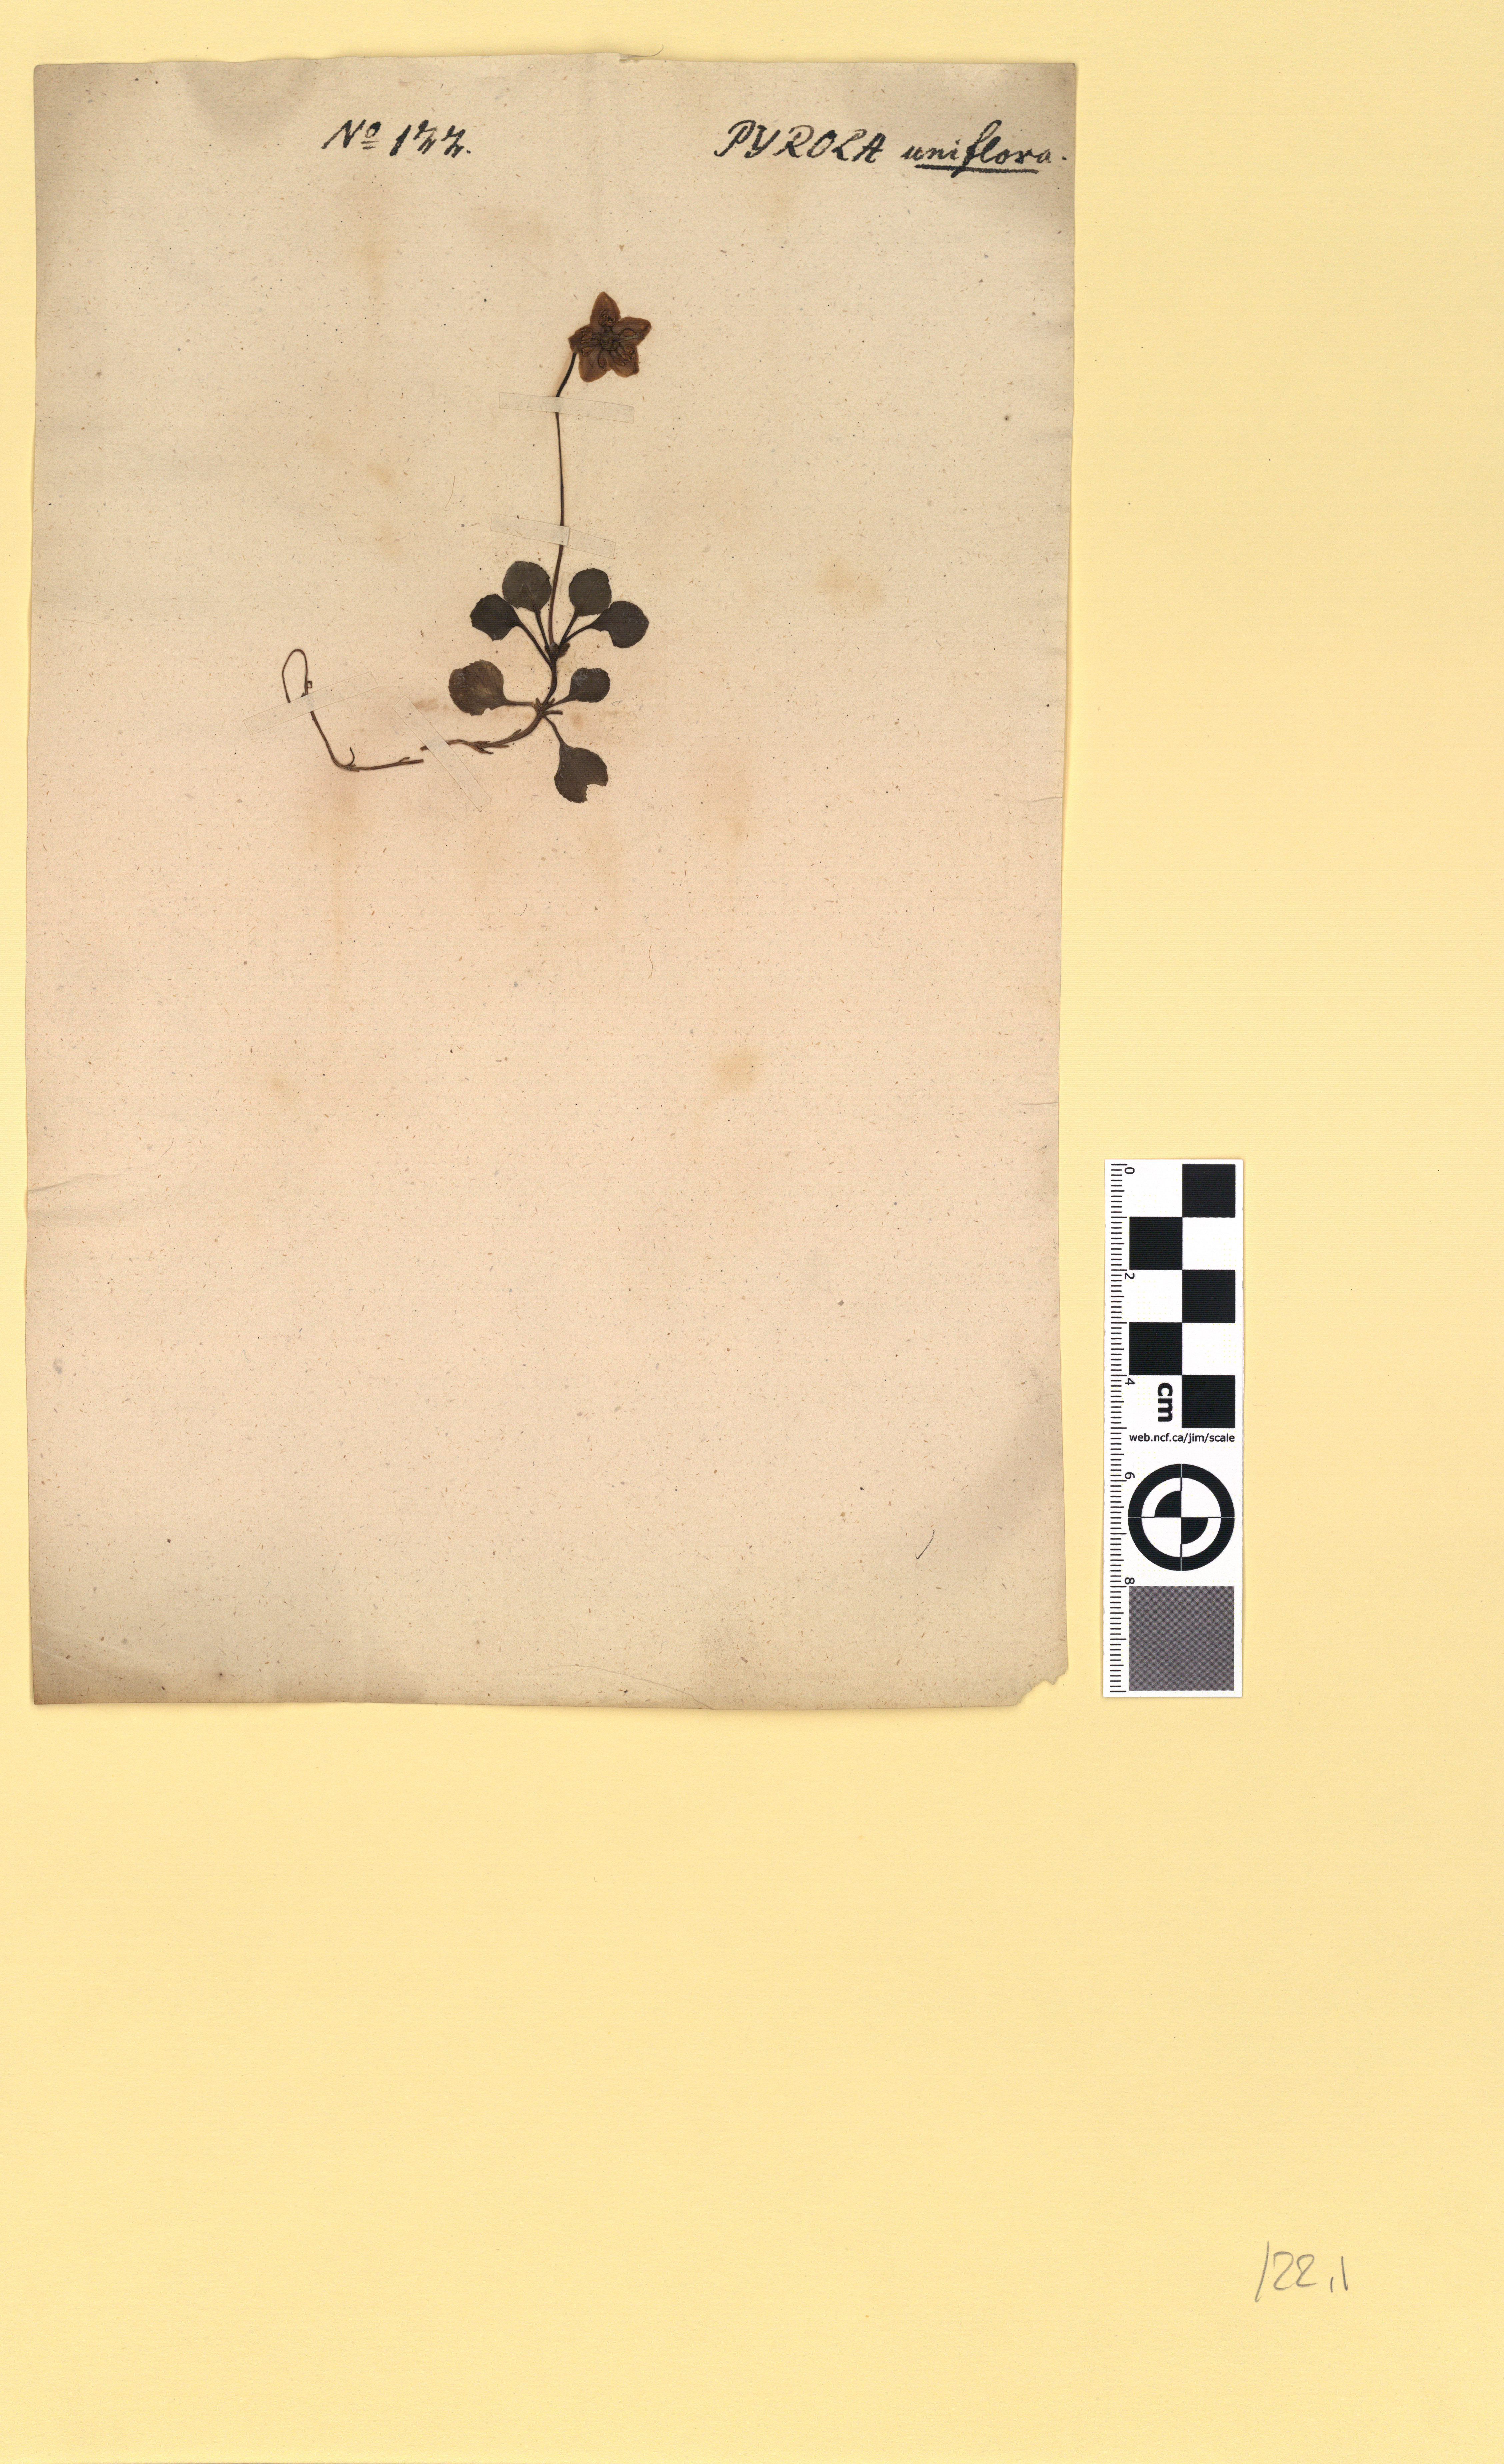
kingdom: Plantae
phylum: Tracheophyta
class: Magnoliopsida
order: Ericales
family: Ericaceae
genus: Moneses
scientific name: Moneses uniflora
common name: One-flowered wintergreen
